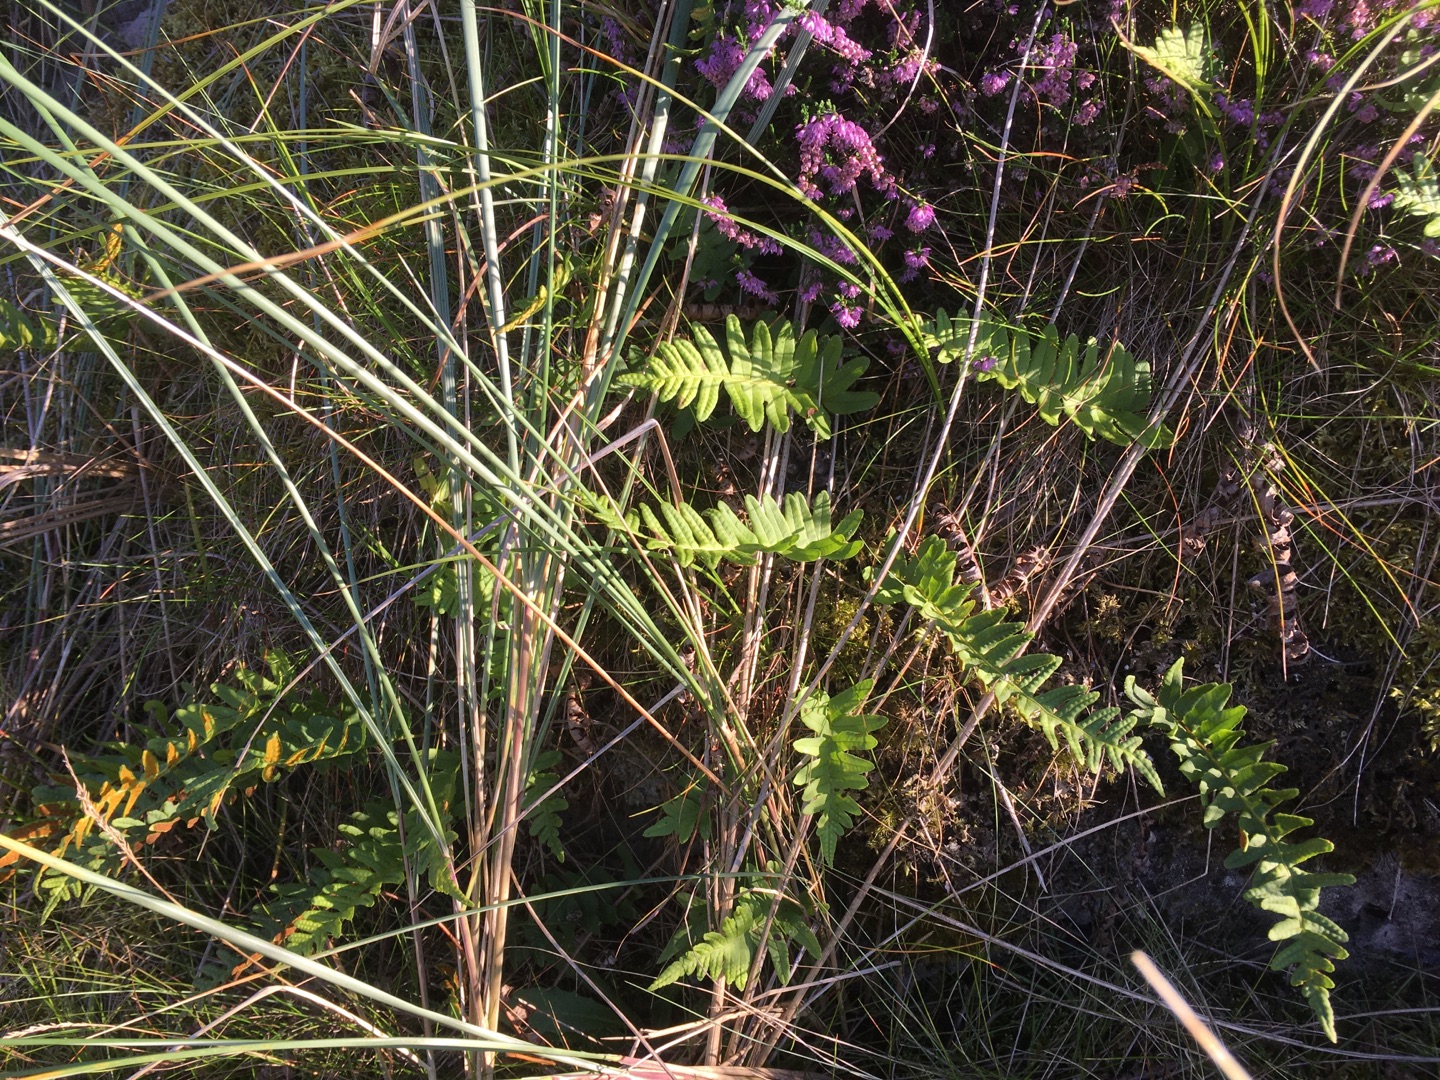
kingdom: Plantae
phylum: Tracheophyta
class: Polypodiopsida
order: Polypodiales
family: Polypodiaceae
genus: Polypodium
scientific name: Polypodium vulgare
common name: Almindelig engelsød
